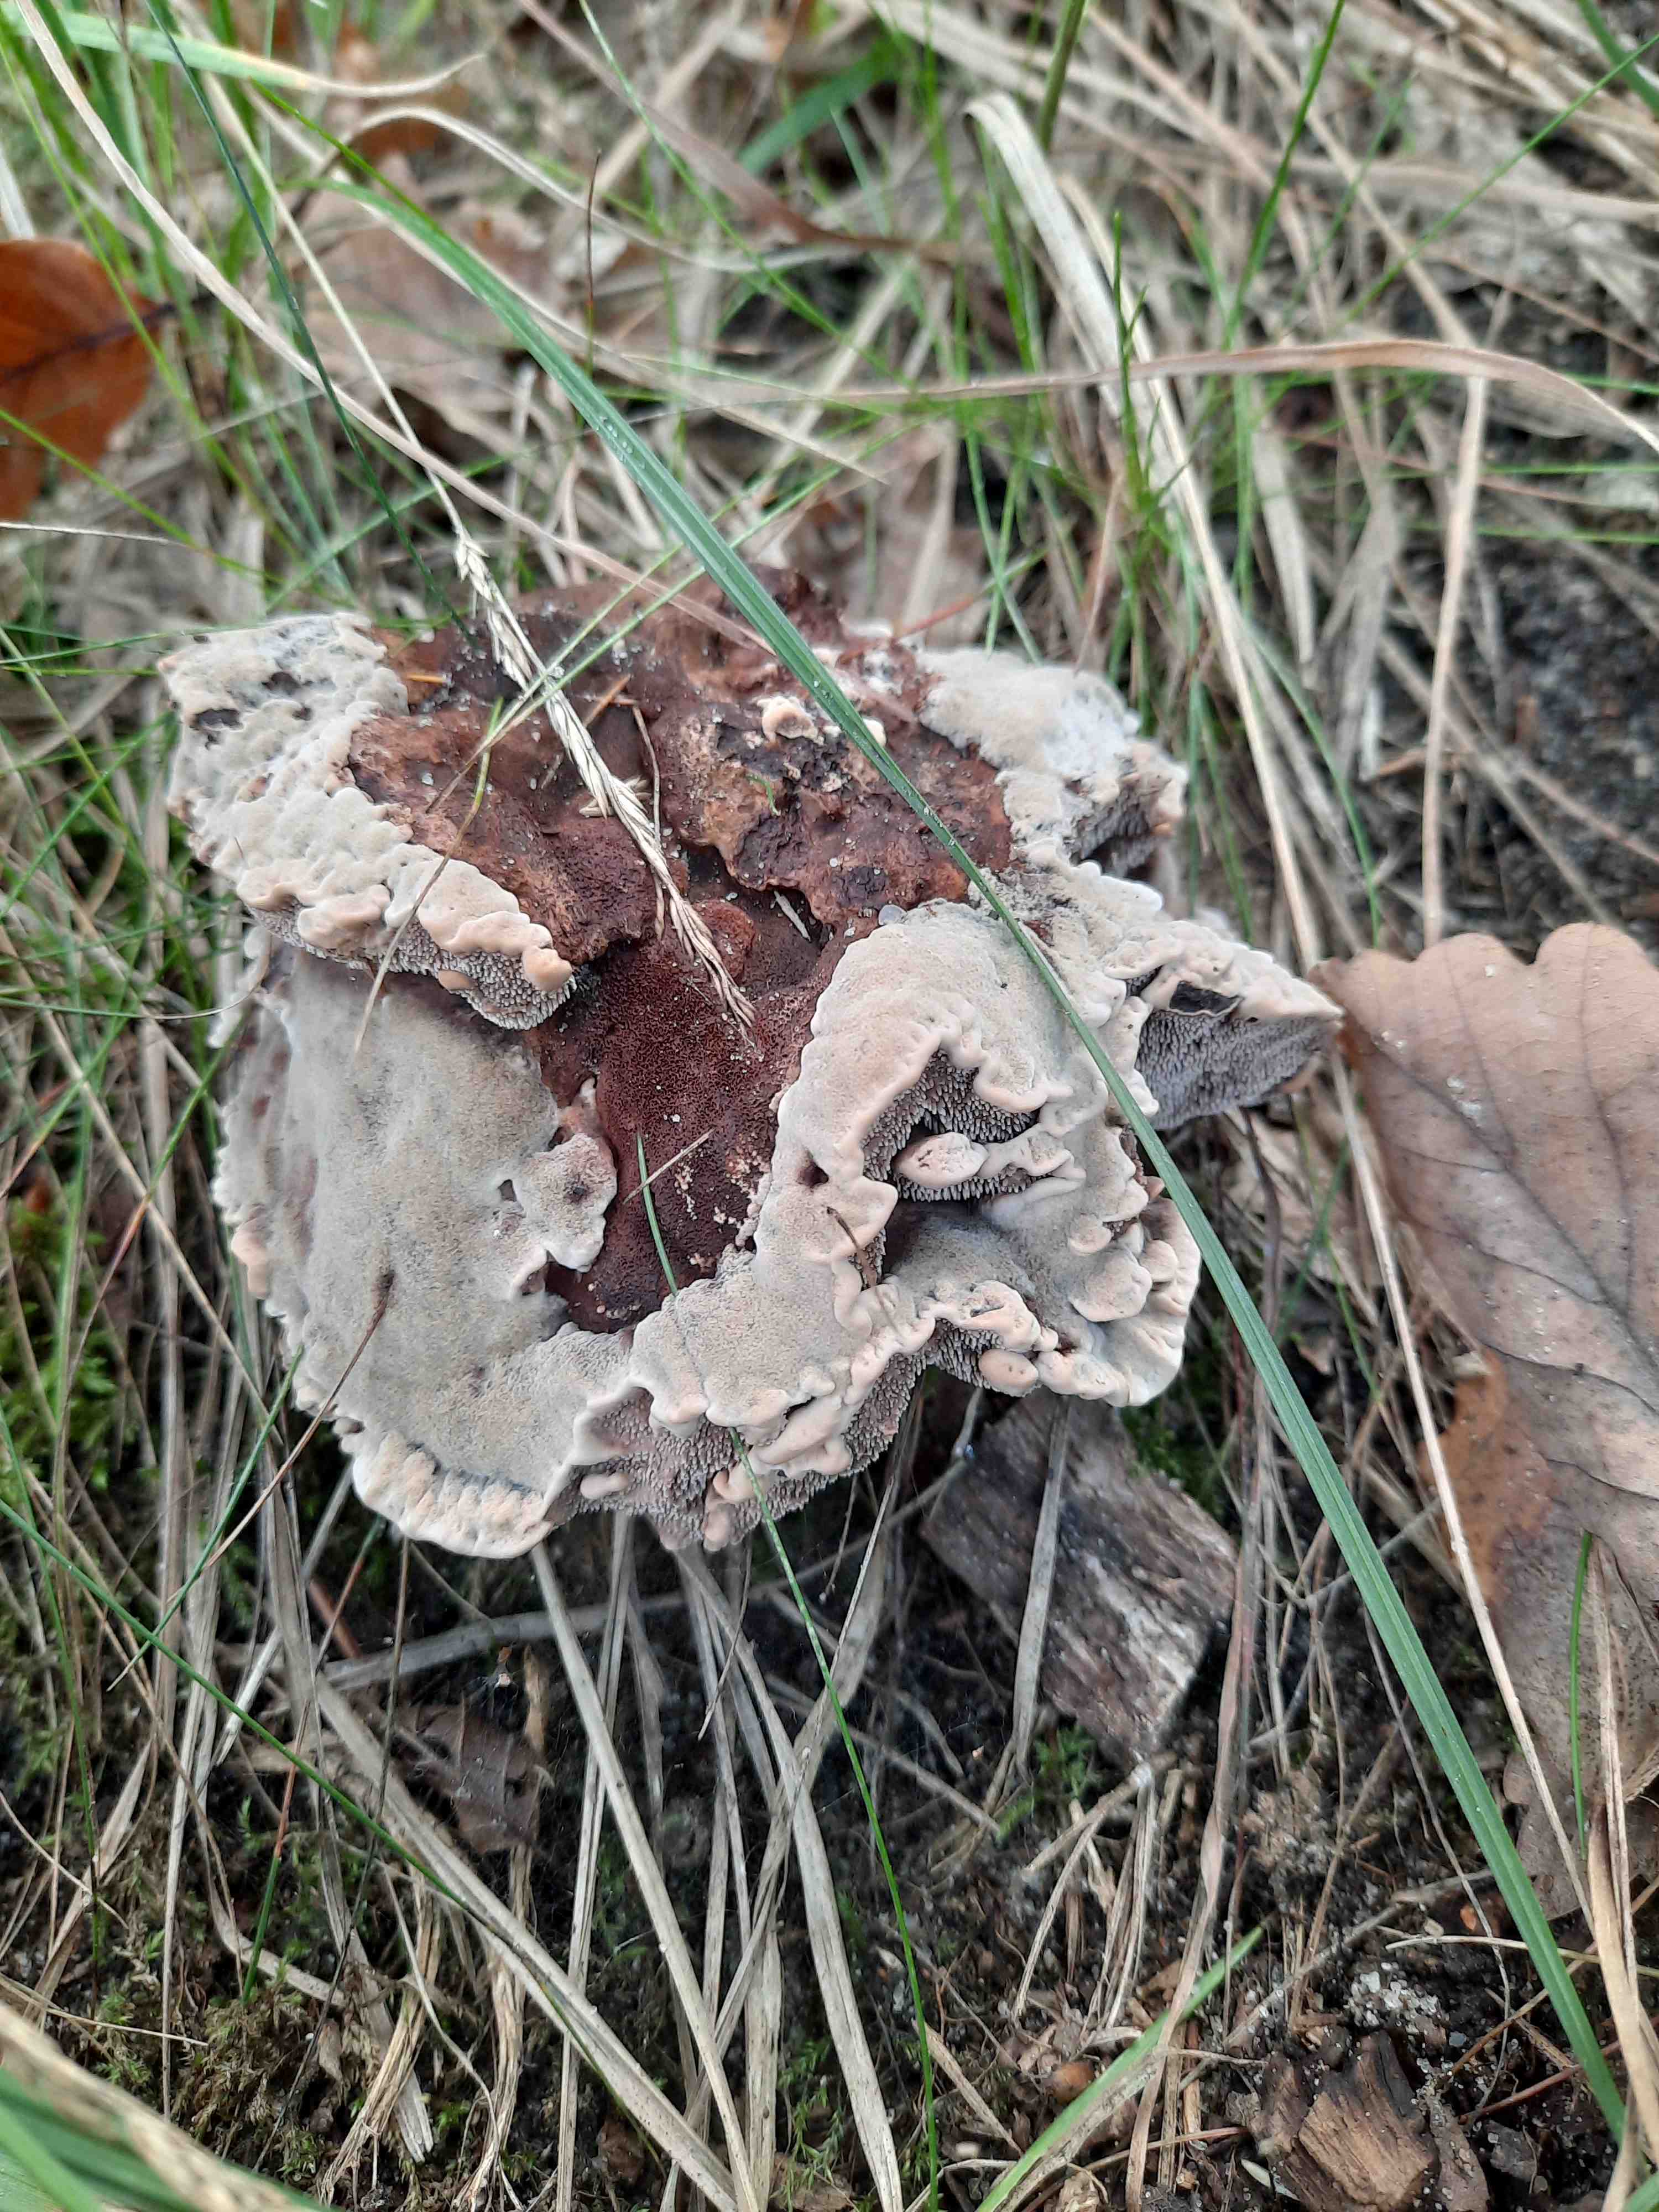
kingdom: Fungi
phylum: Basidiomycota
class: Agaricomycetes
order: Thelephorales
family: Bankeraceae
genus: Hydnellum
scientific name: Hydnellum spongiosipes
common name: filtet korkpigsvamp
